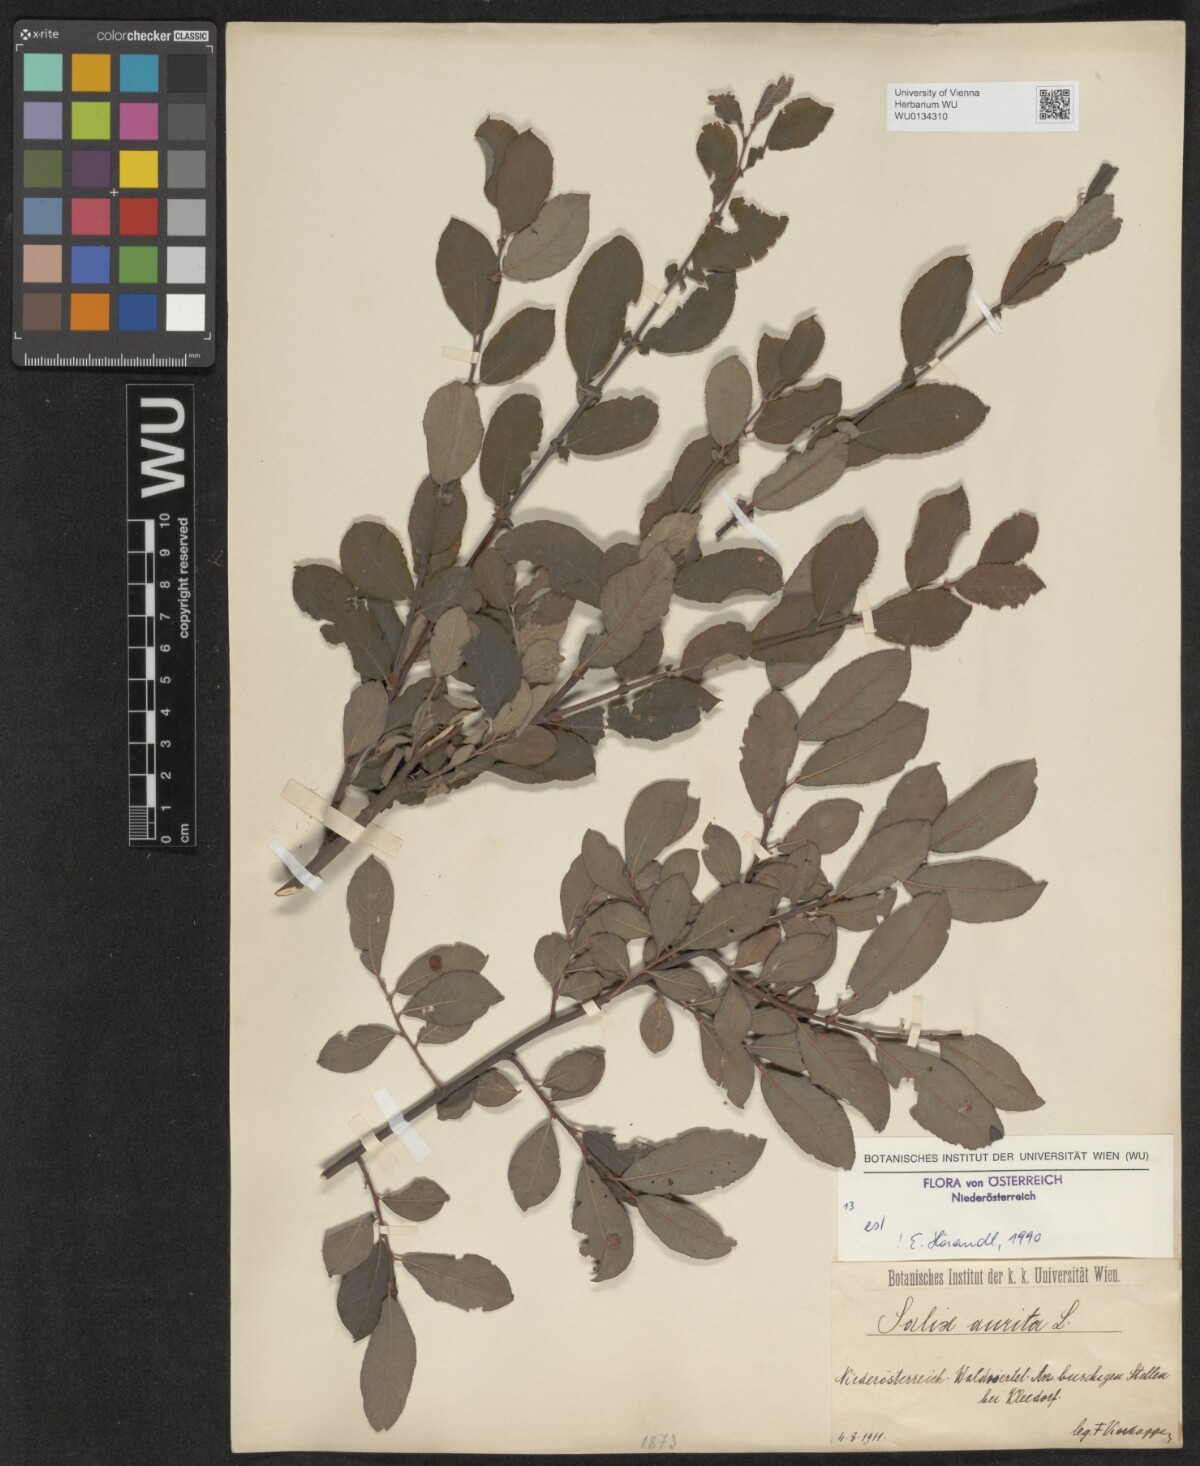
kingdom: Plantae
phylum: Tracheophyta
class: Magnoliopsida
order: Malpighiales
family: Salicaceae
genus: Salix
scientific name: Salix aurita
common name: Eared willow
